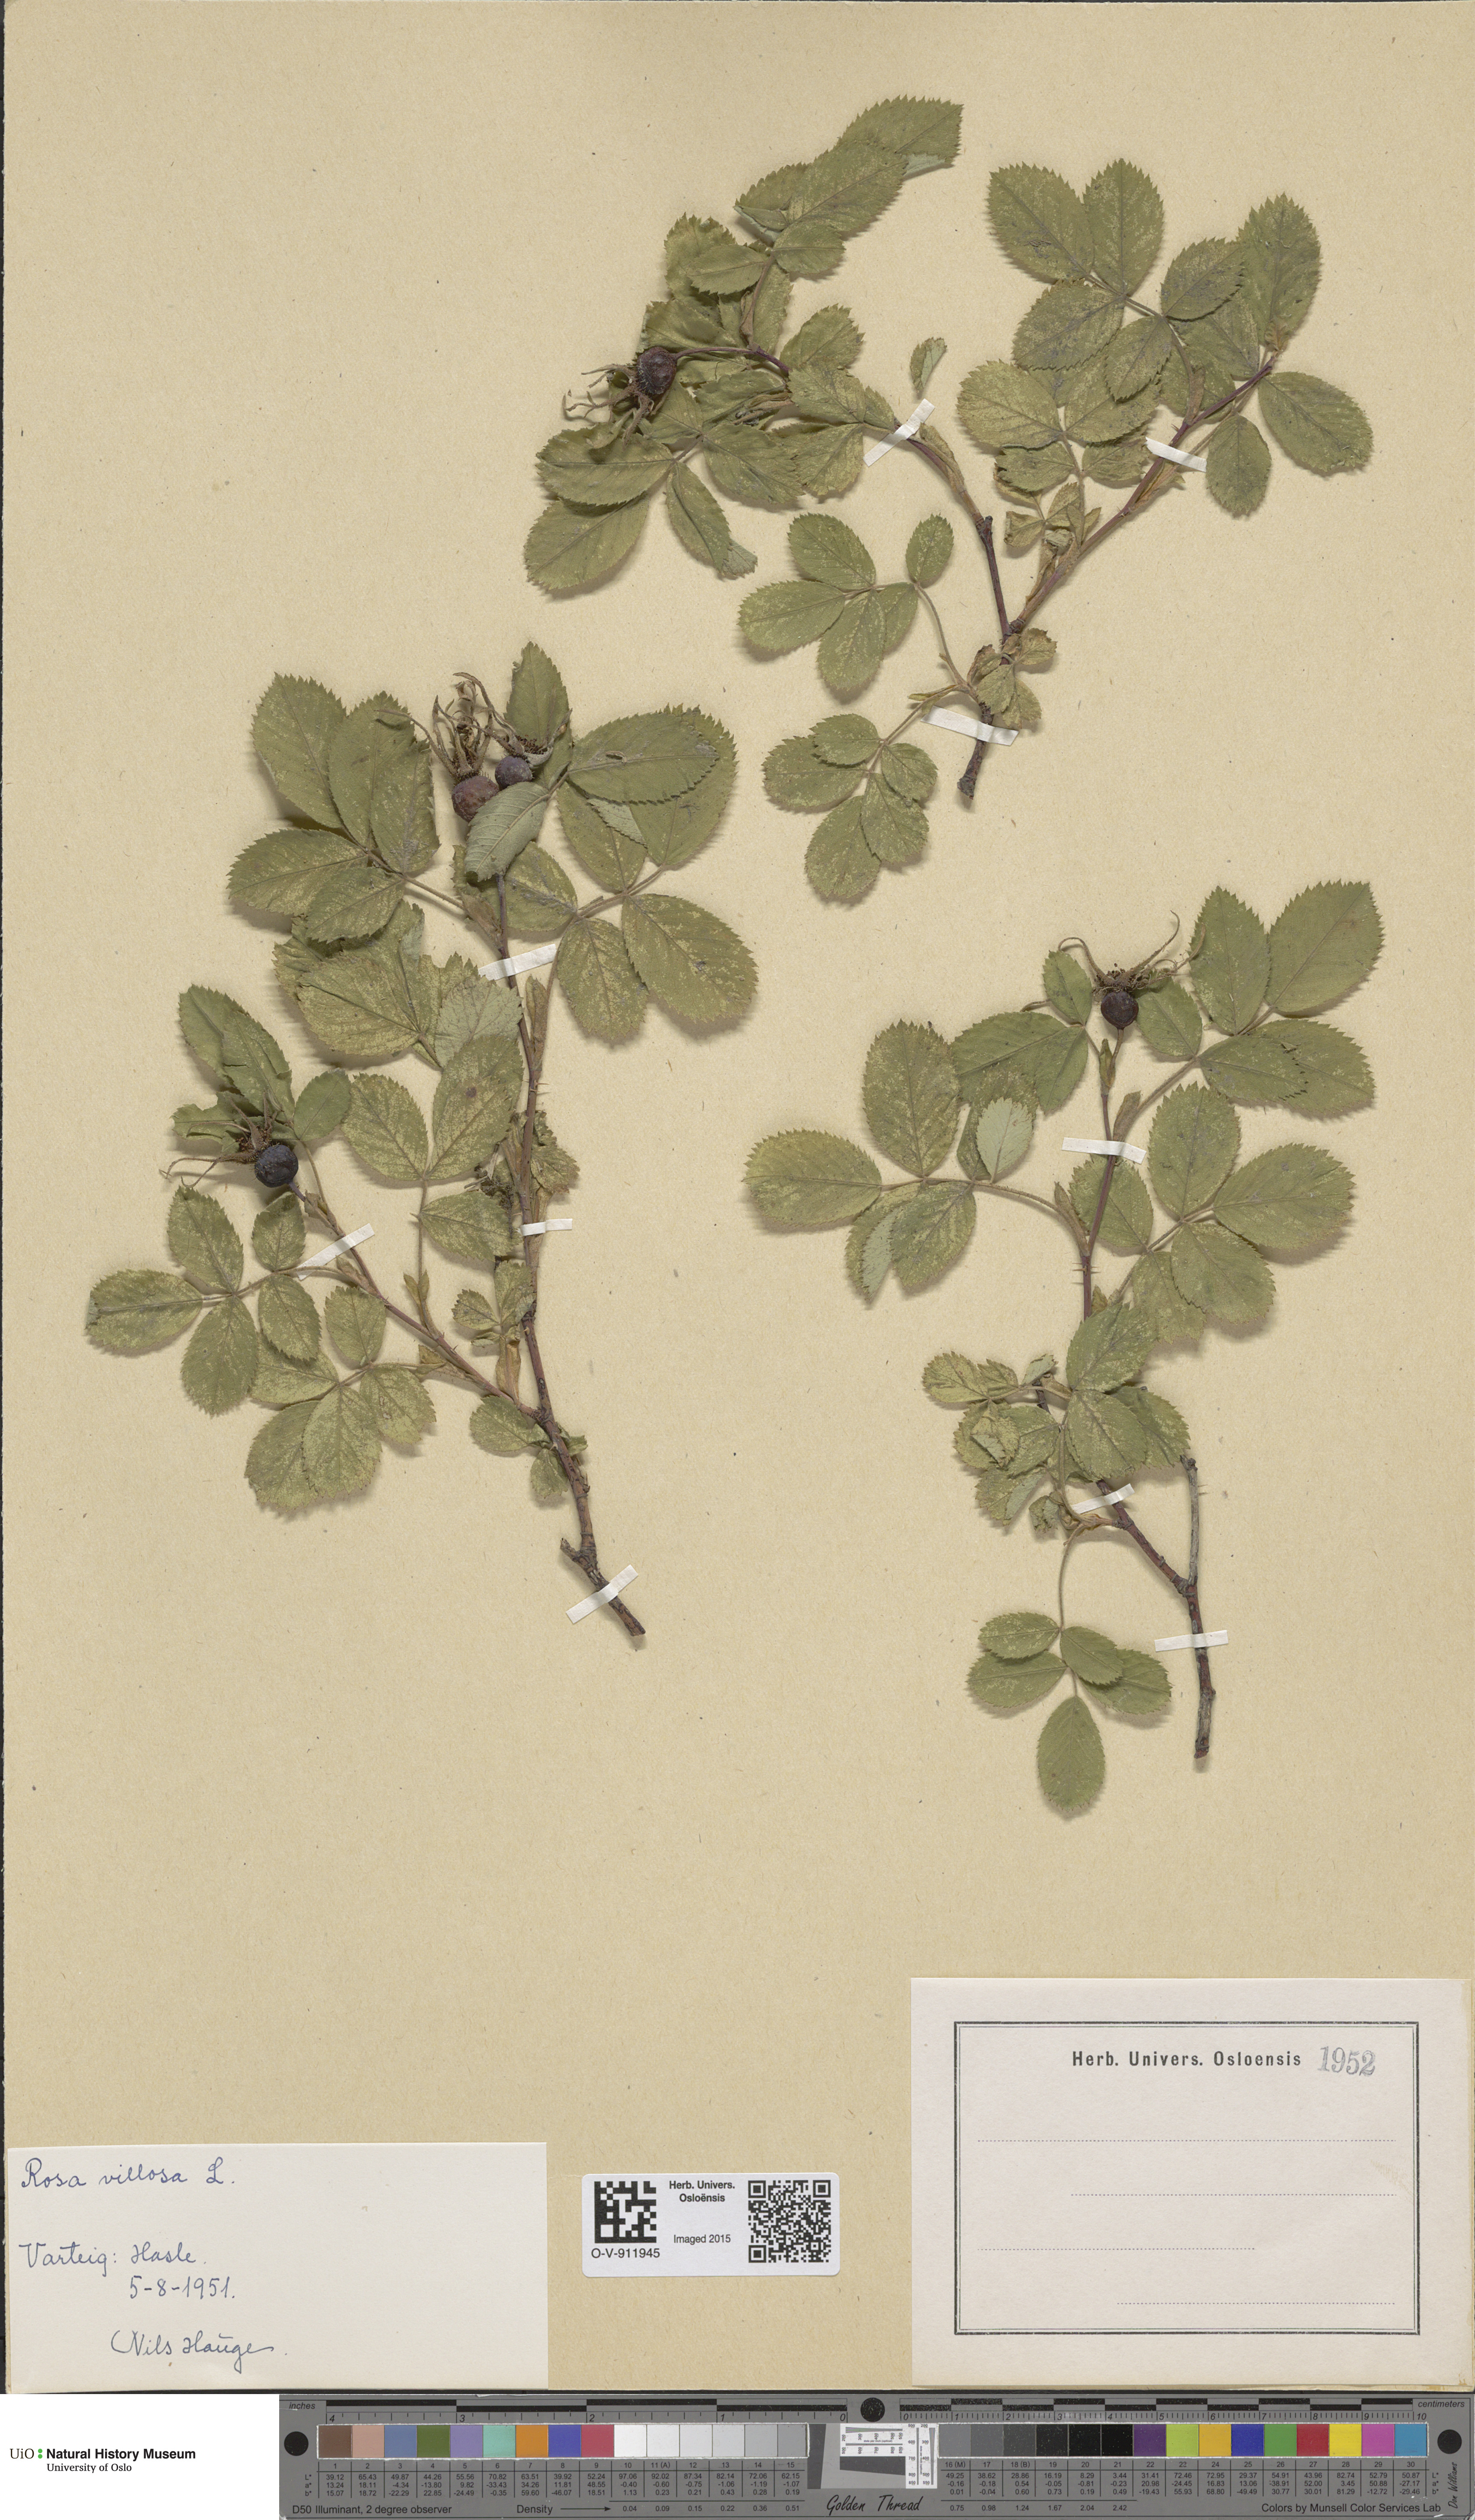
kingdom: Plantae
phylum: Tracheophyta
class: Magnoliopsida
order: Rosales
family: Rosaceae
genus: Rosa
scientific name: Rosa villosa
